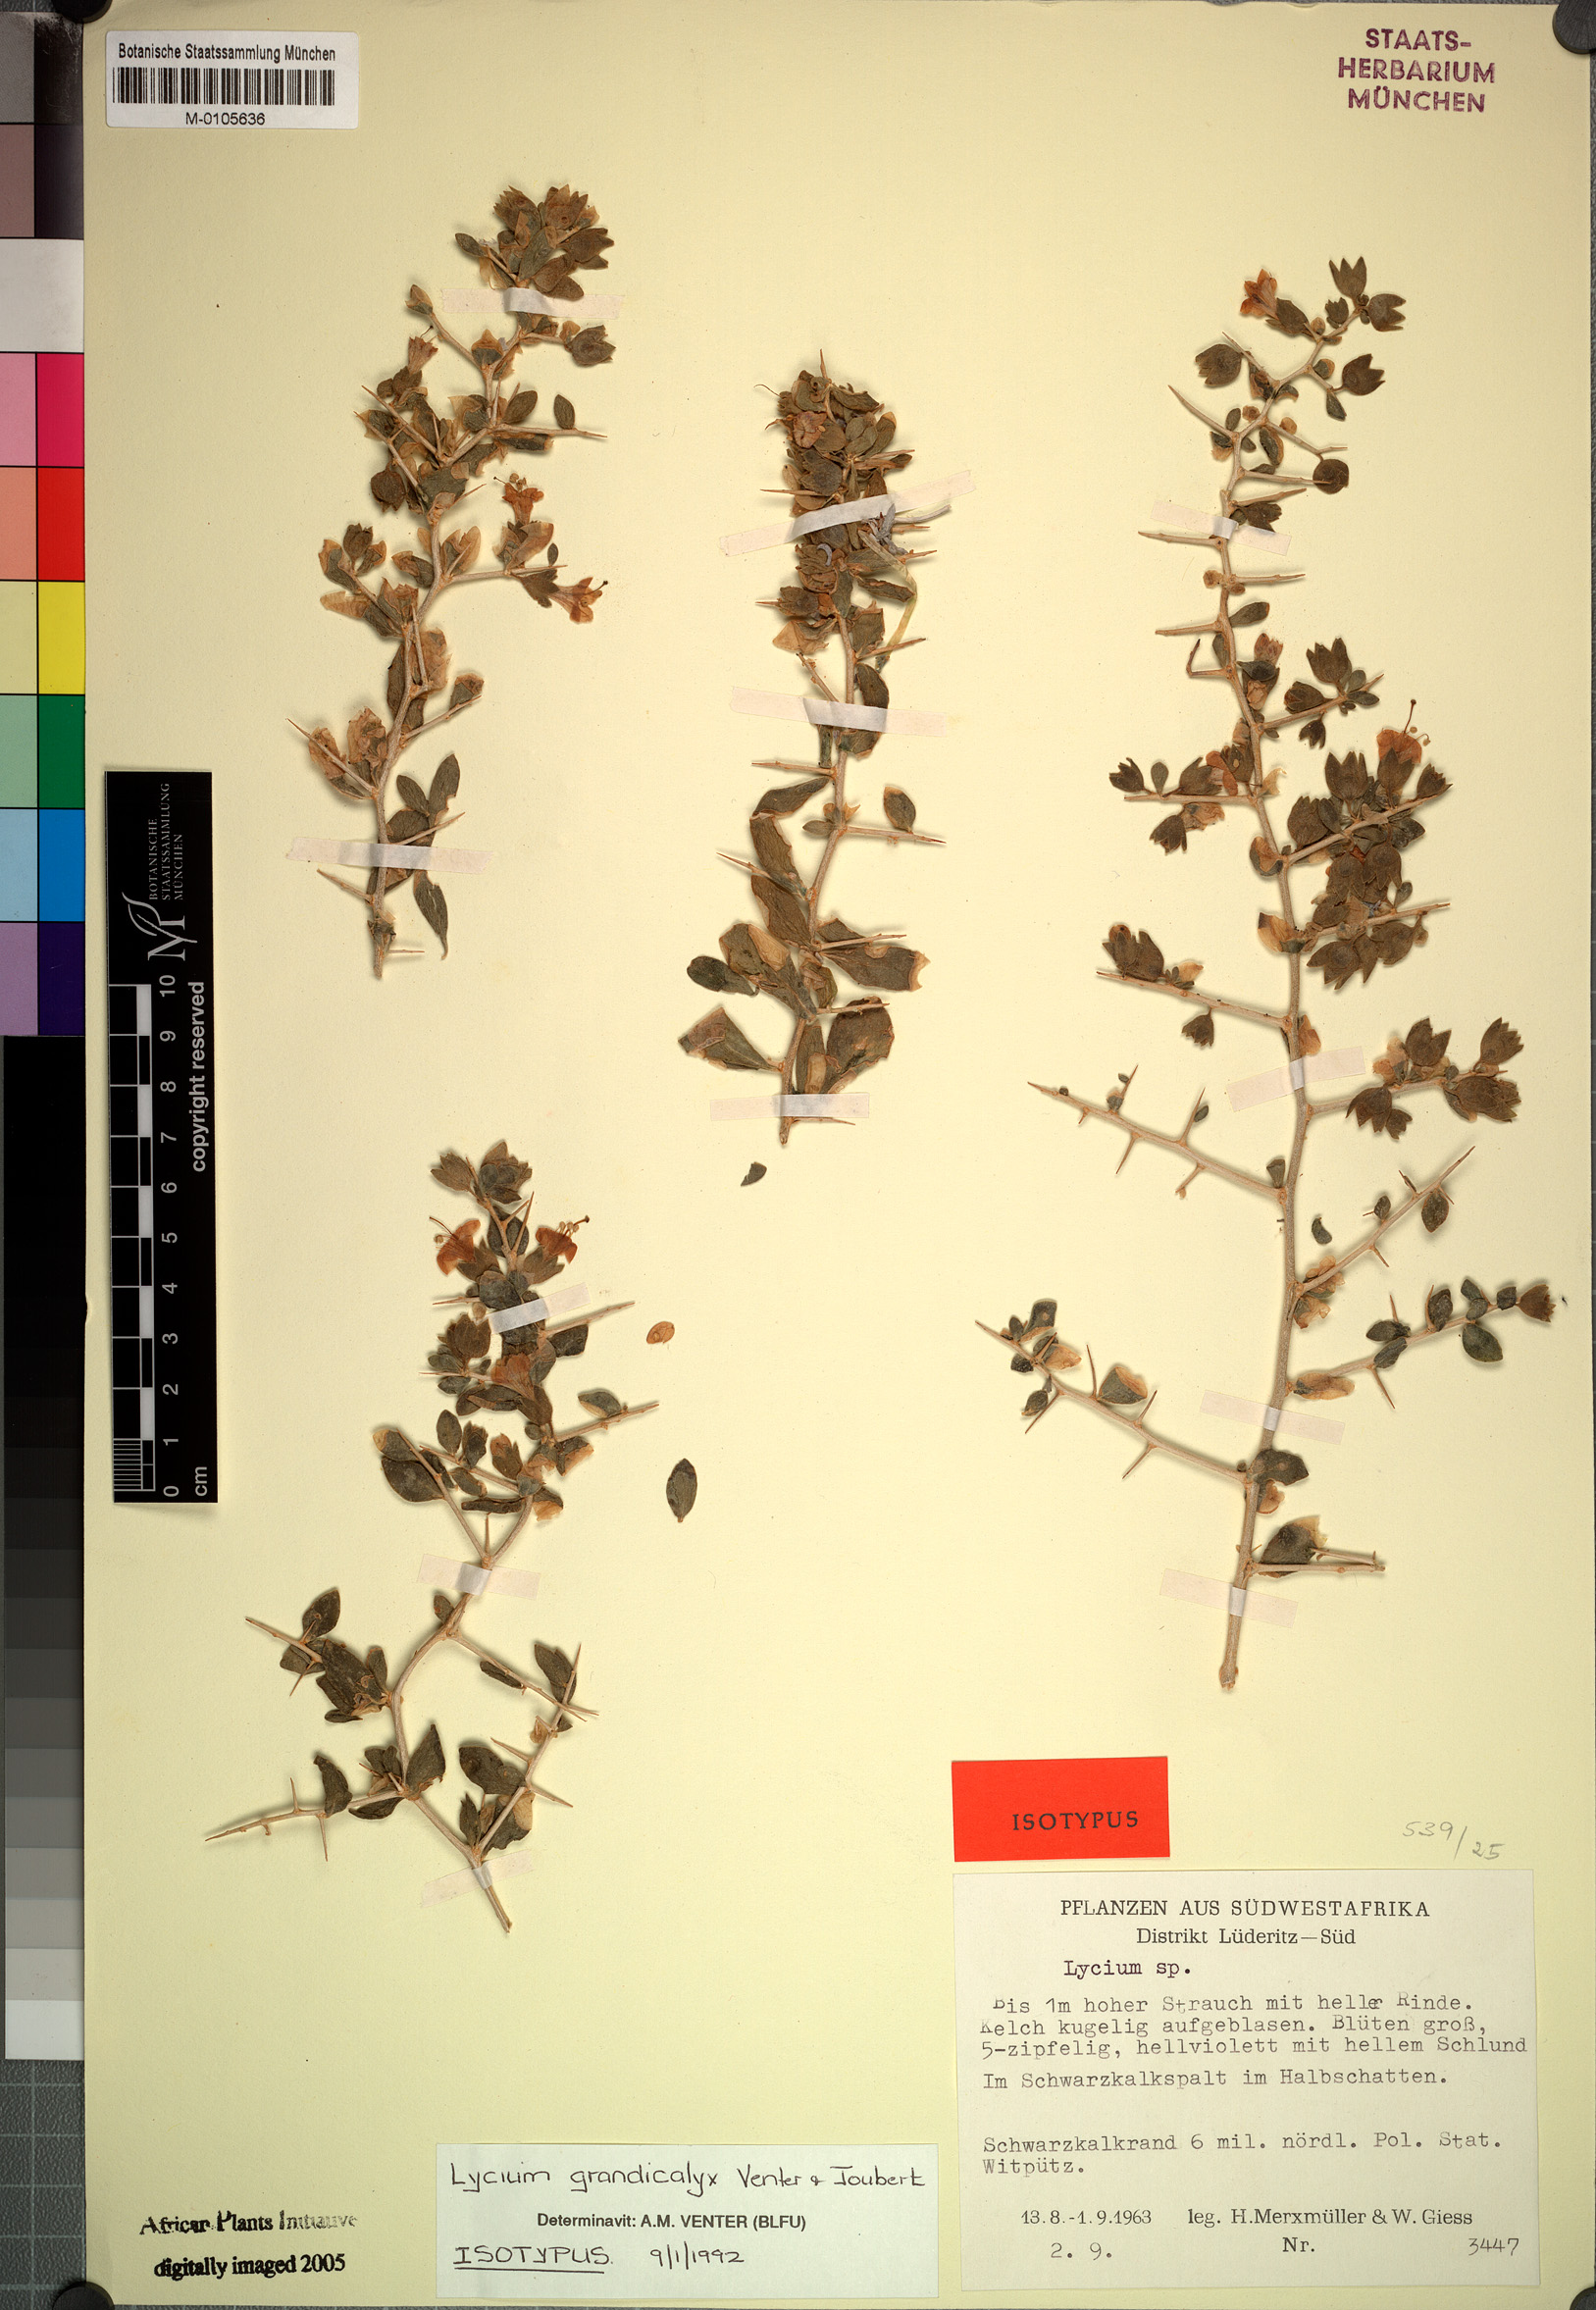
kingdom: Plantae
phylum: Tracheophyta
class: Magnoliopsida
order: Solanales
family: Solanaceae
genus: Lycium
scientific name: Lycium grandicalyx
